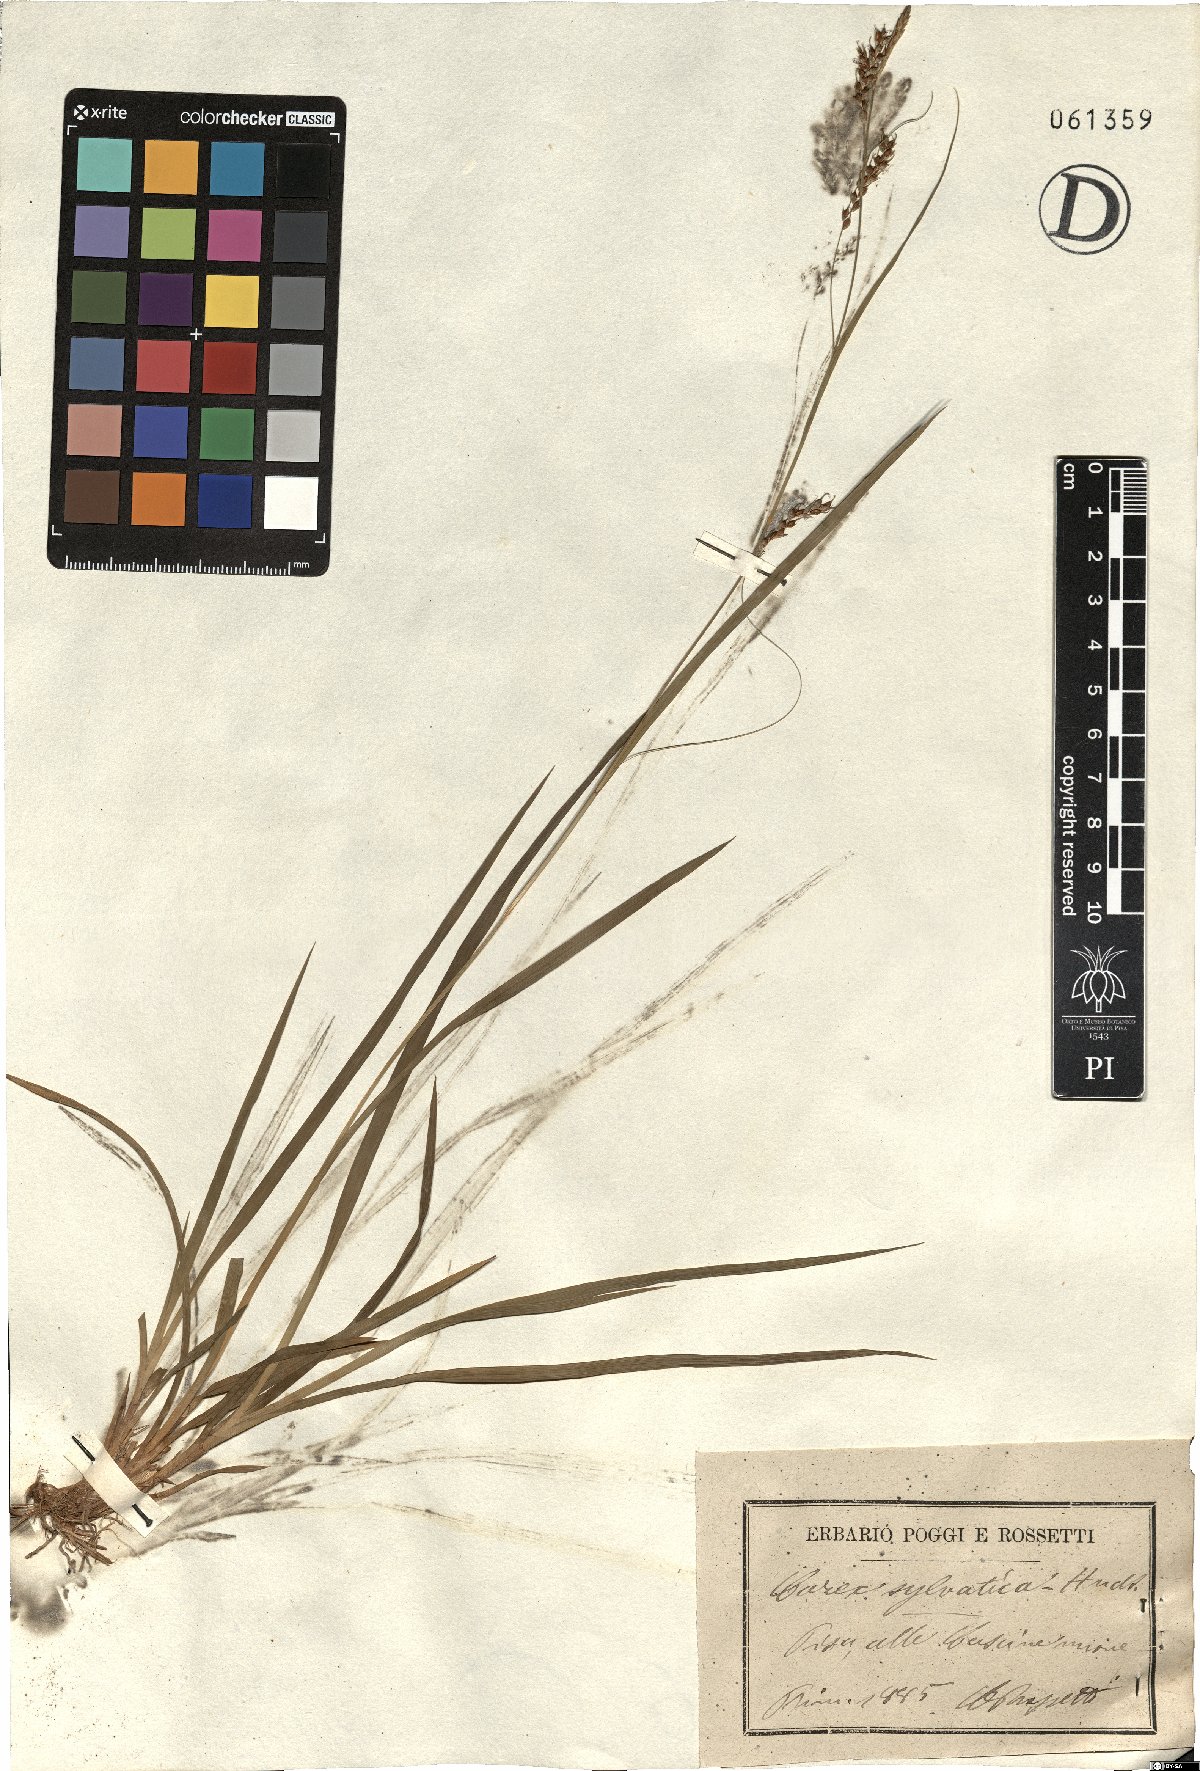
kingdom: Plantae
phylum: Tracheophyta
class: Liliopsida
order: Poales
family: Cyperaceae
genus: Carex
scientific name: Carex sylvatica
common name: Wood-sedge
